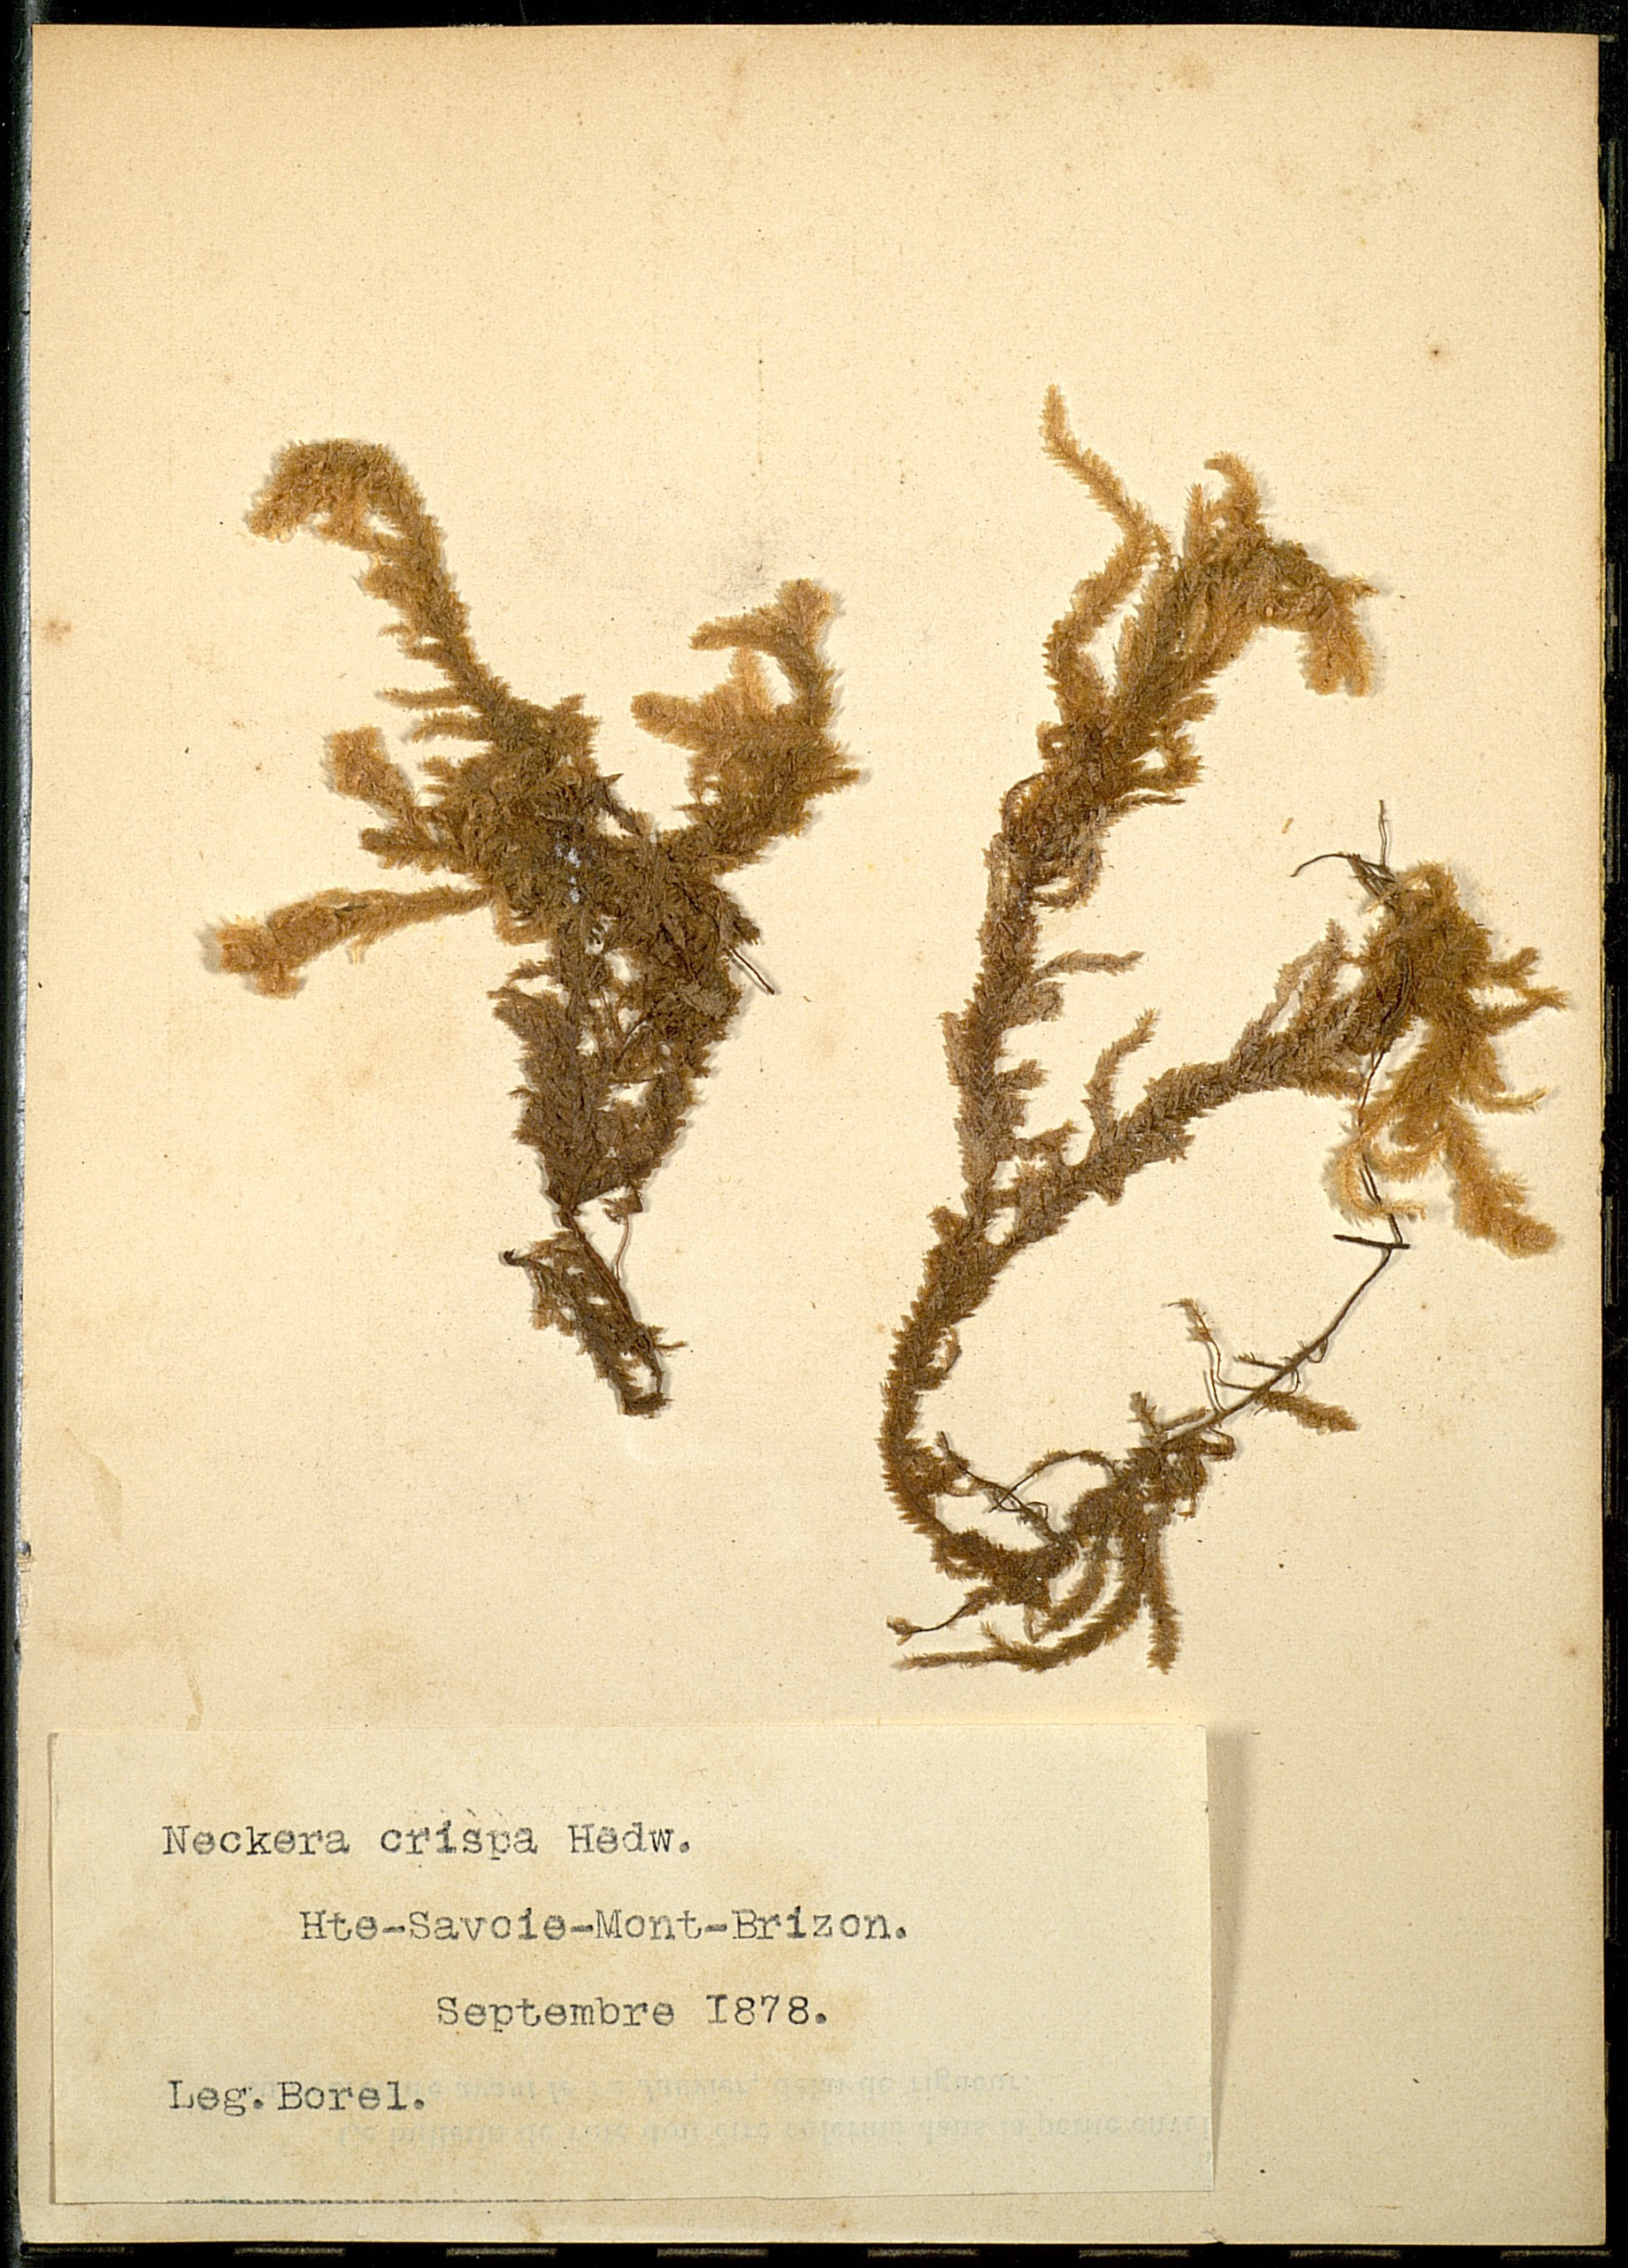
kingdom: Plantae
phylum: Bryophyta
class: Bryopsida
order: Hypnales
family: Neckeraceae
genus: Exsertotheca
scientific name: Exsertotheca crispa
